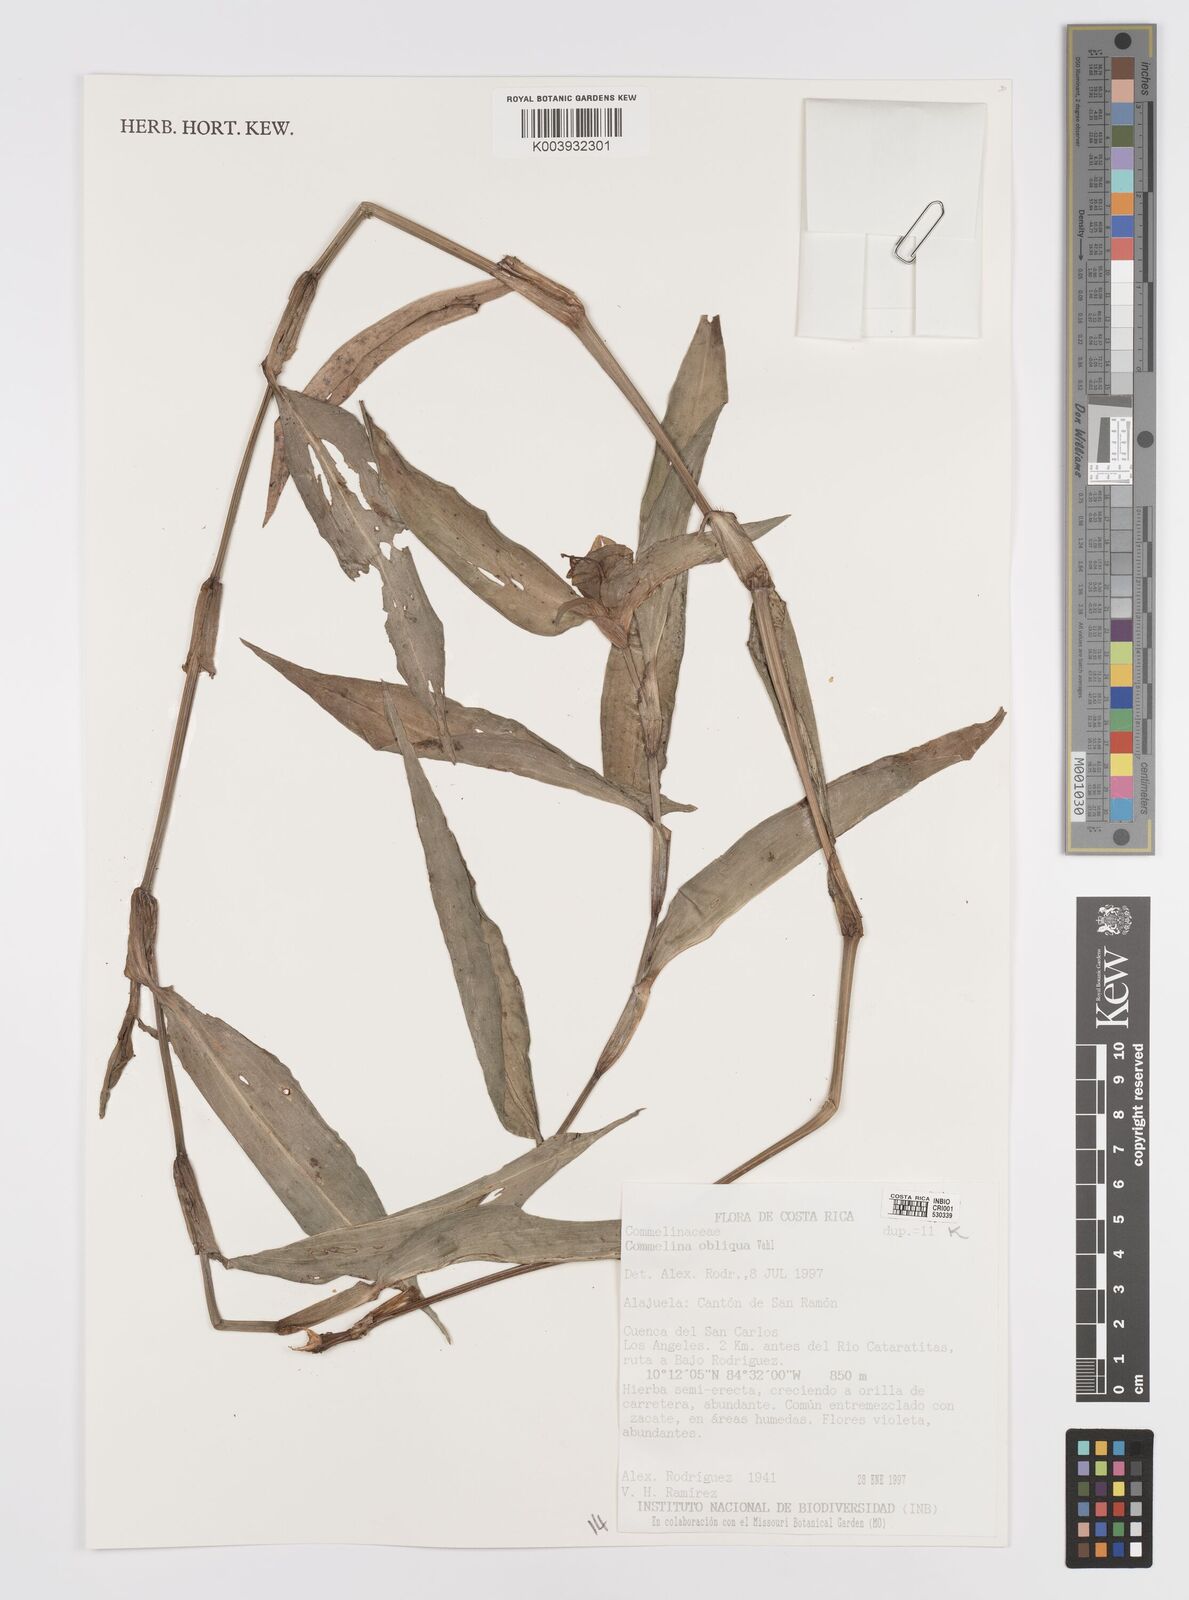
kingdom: Plantae
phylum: Tracheophyta
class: Liliopsida
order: Commelinales
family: Commelinaceae
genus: Commelina
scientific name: Commelina obliqua
